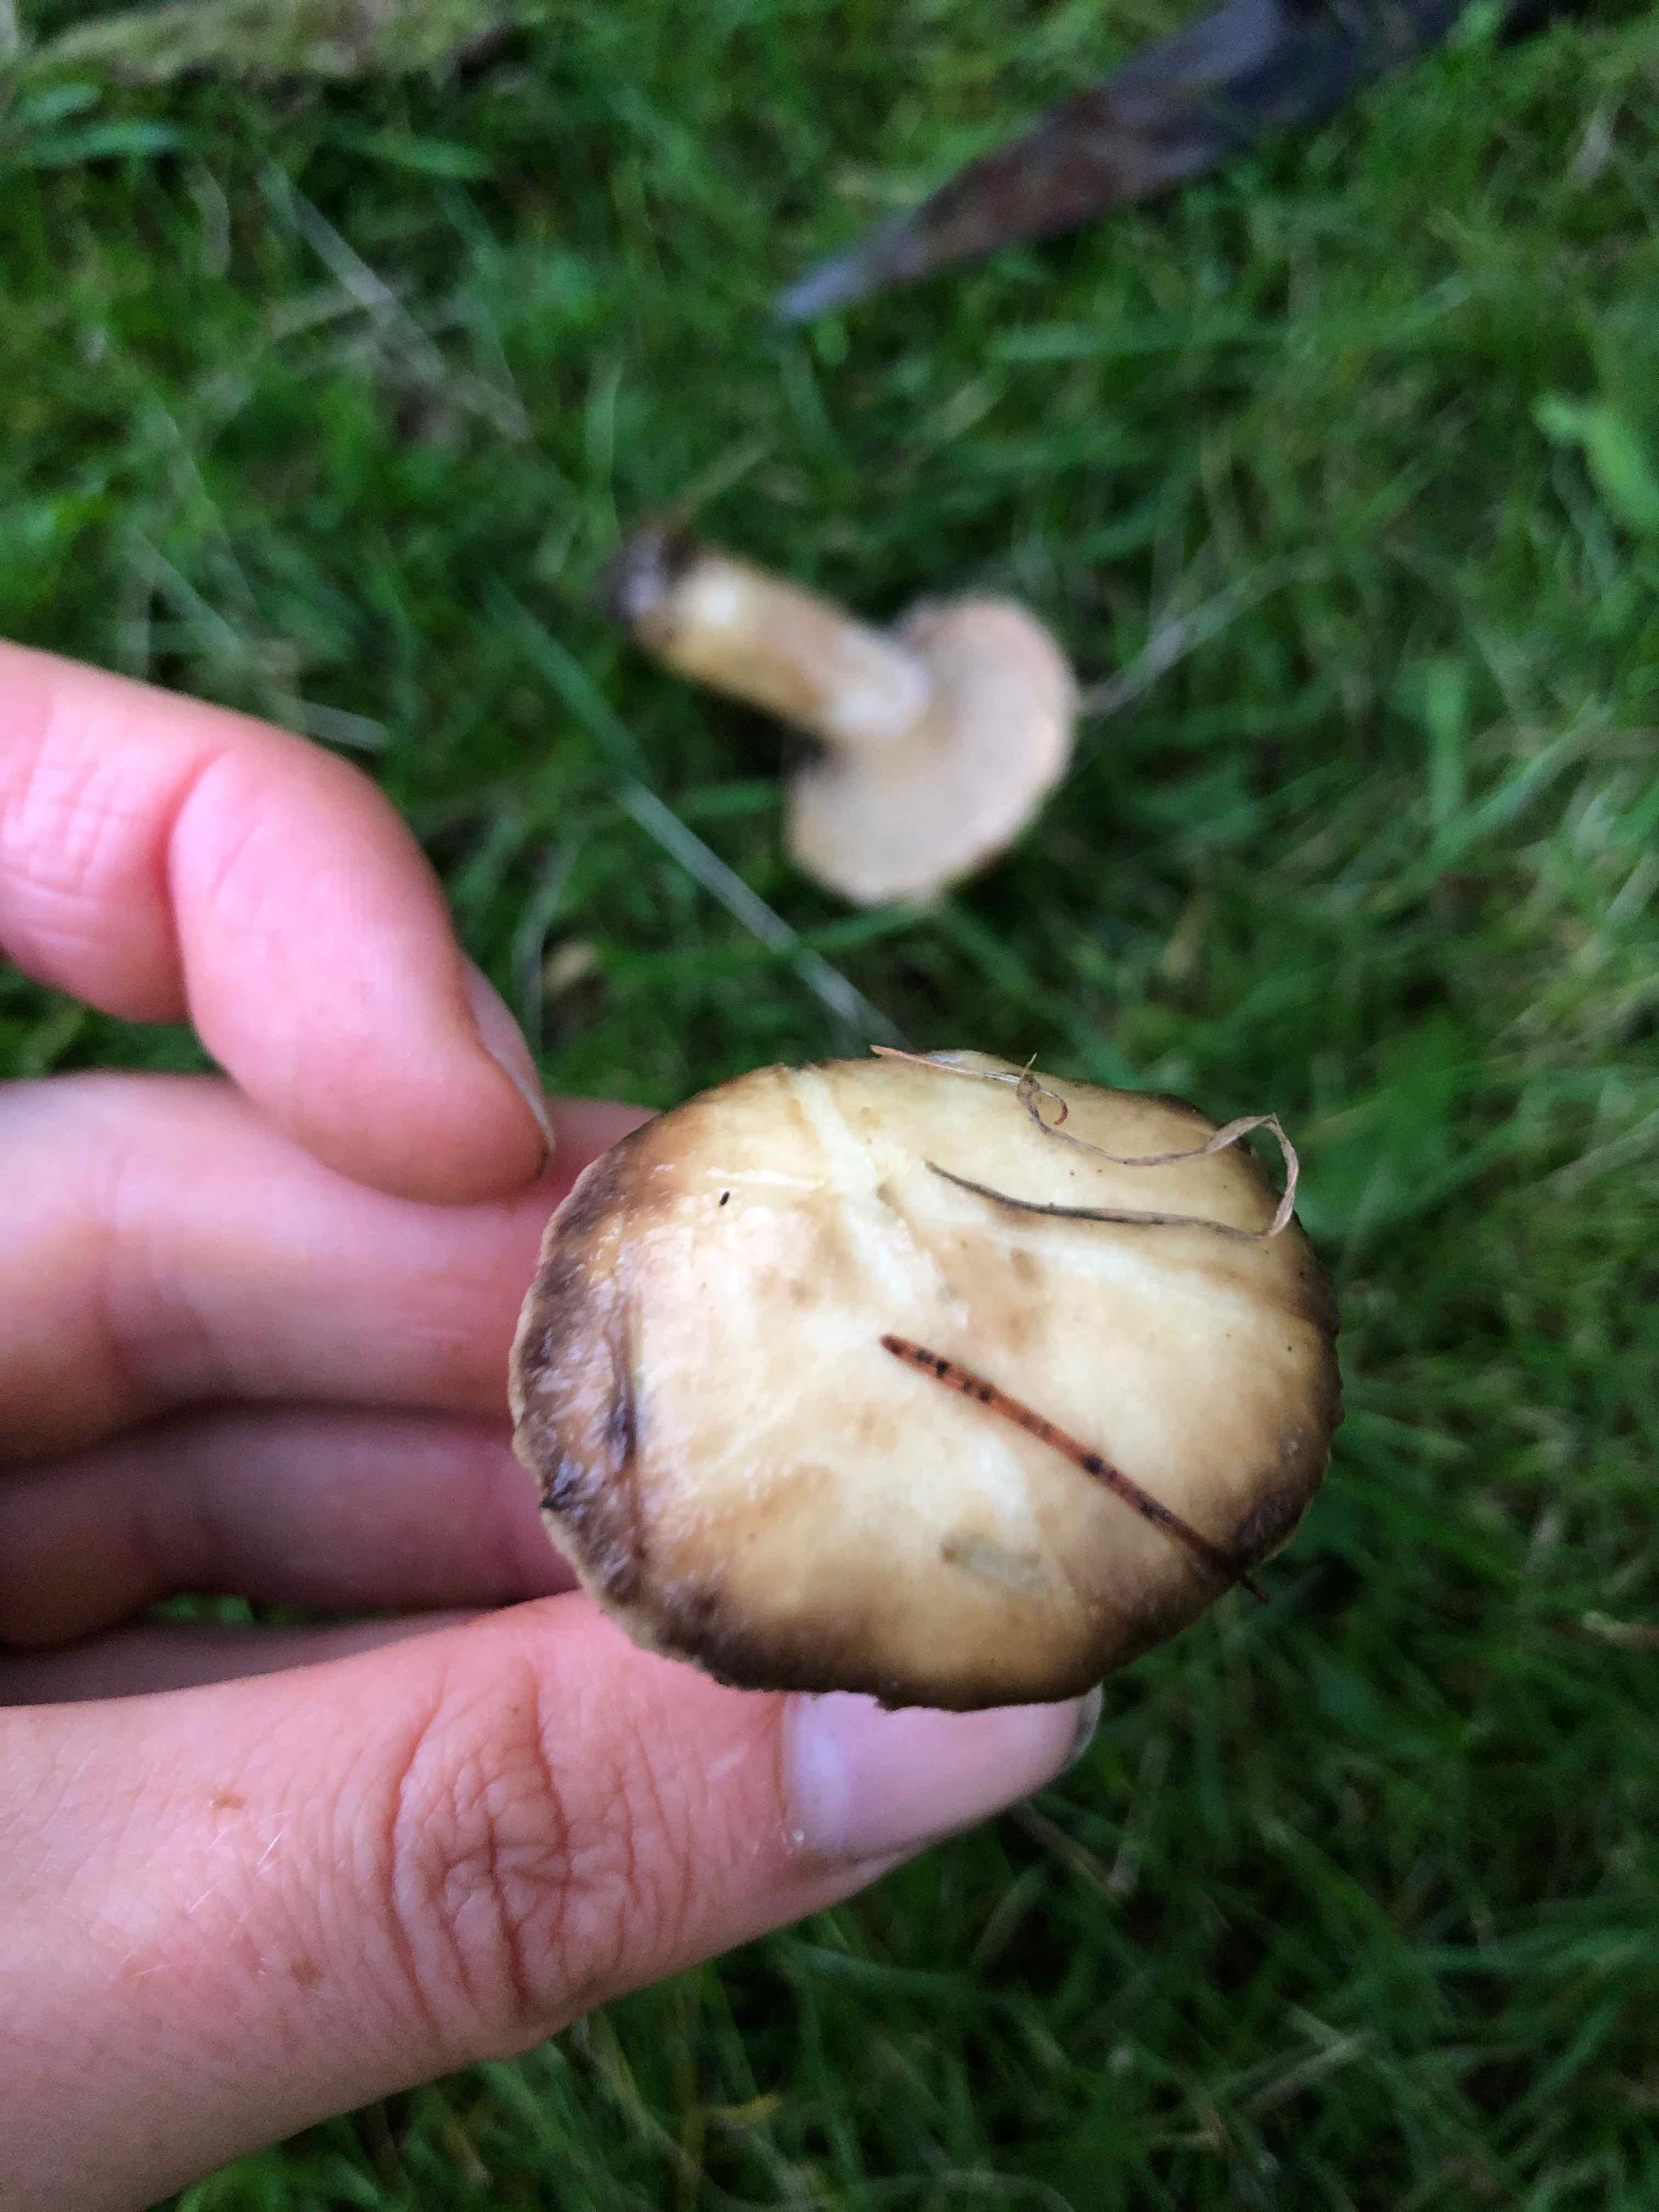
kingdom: Fungi
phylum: Basidiomycota
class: Agaricomycetes
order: Boletales
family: Suillaceae
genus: Suillus
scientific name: Suillus viscidus
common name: olivengrå slimrørhat
